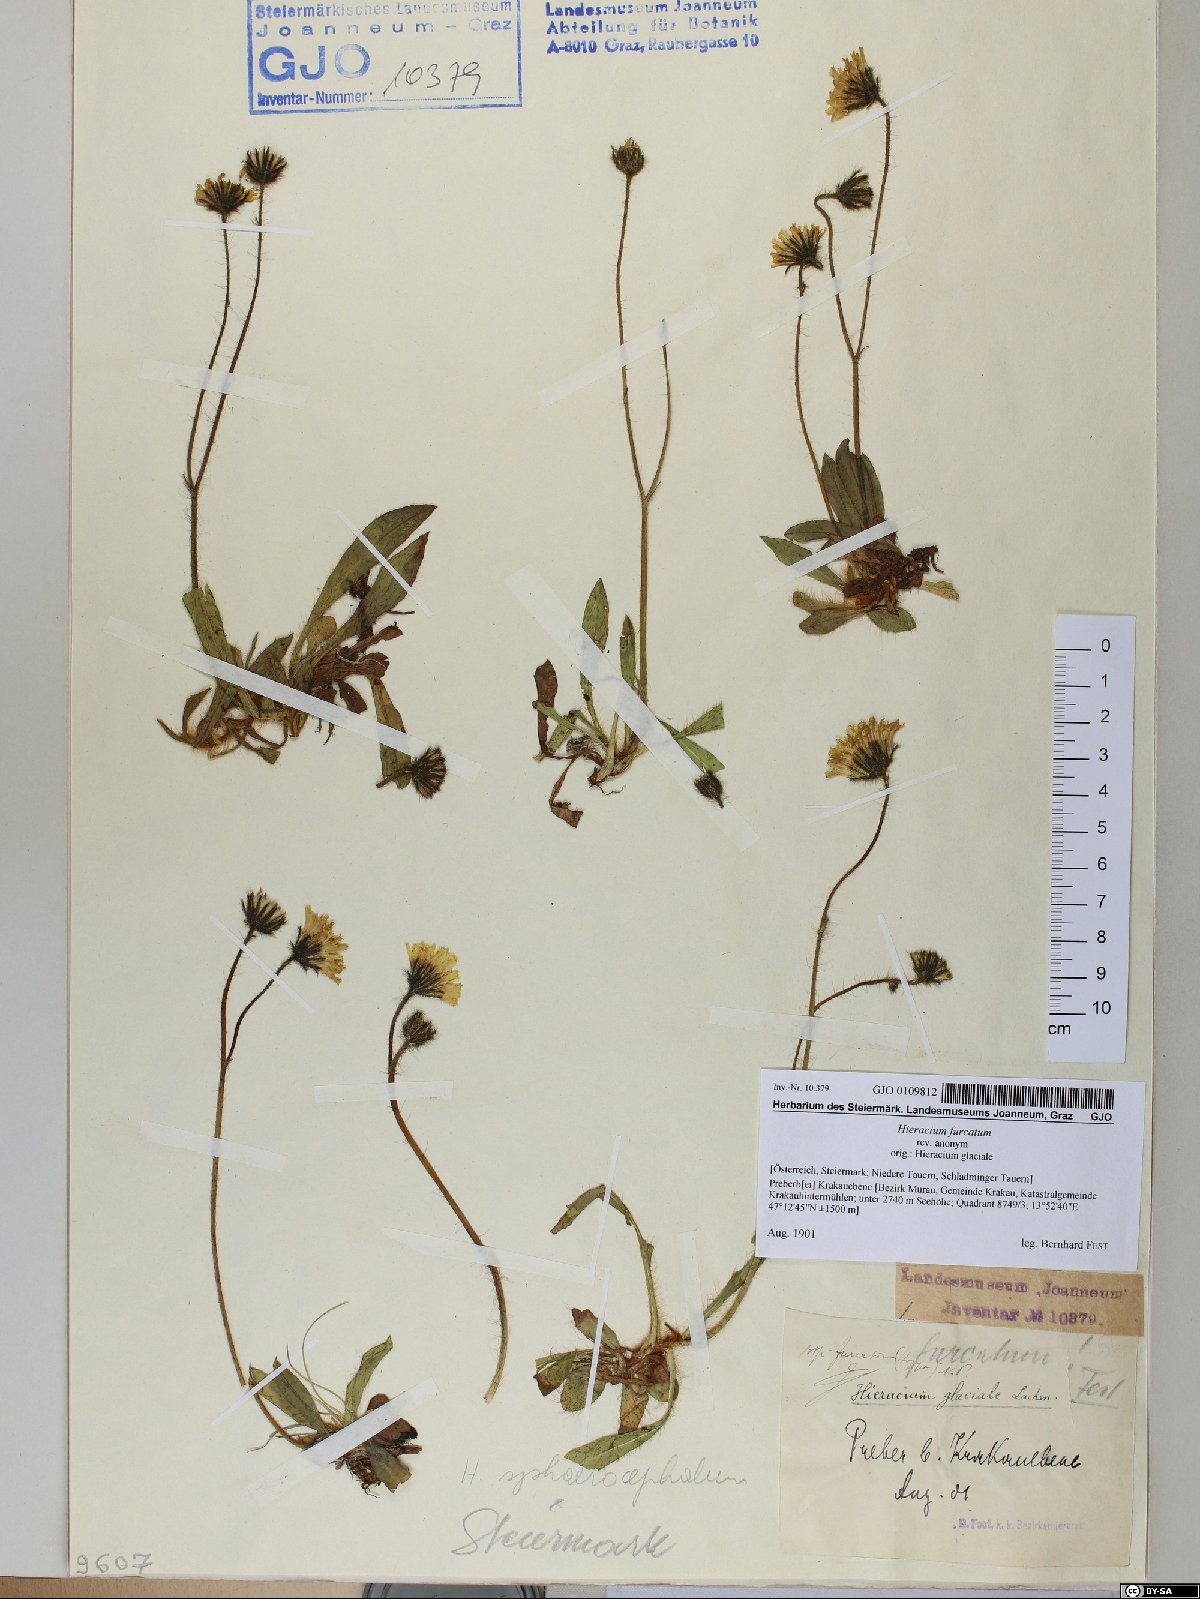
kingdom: Plantae
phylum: Tracheophyta
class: Magnoliopsida
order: Asterales
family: Asteraceae
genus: Pilosella
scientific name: Pilosella sphaerocephala
